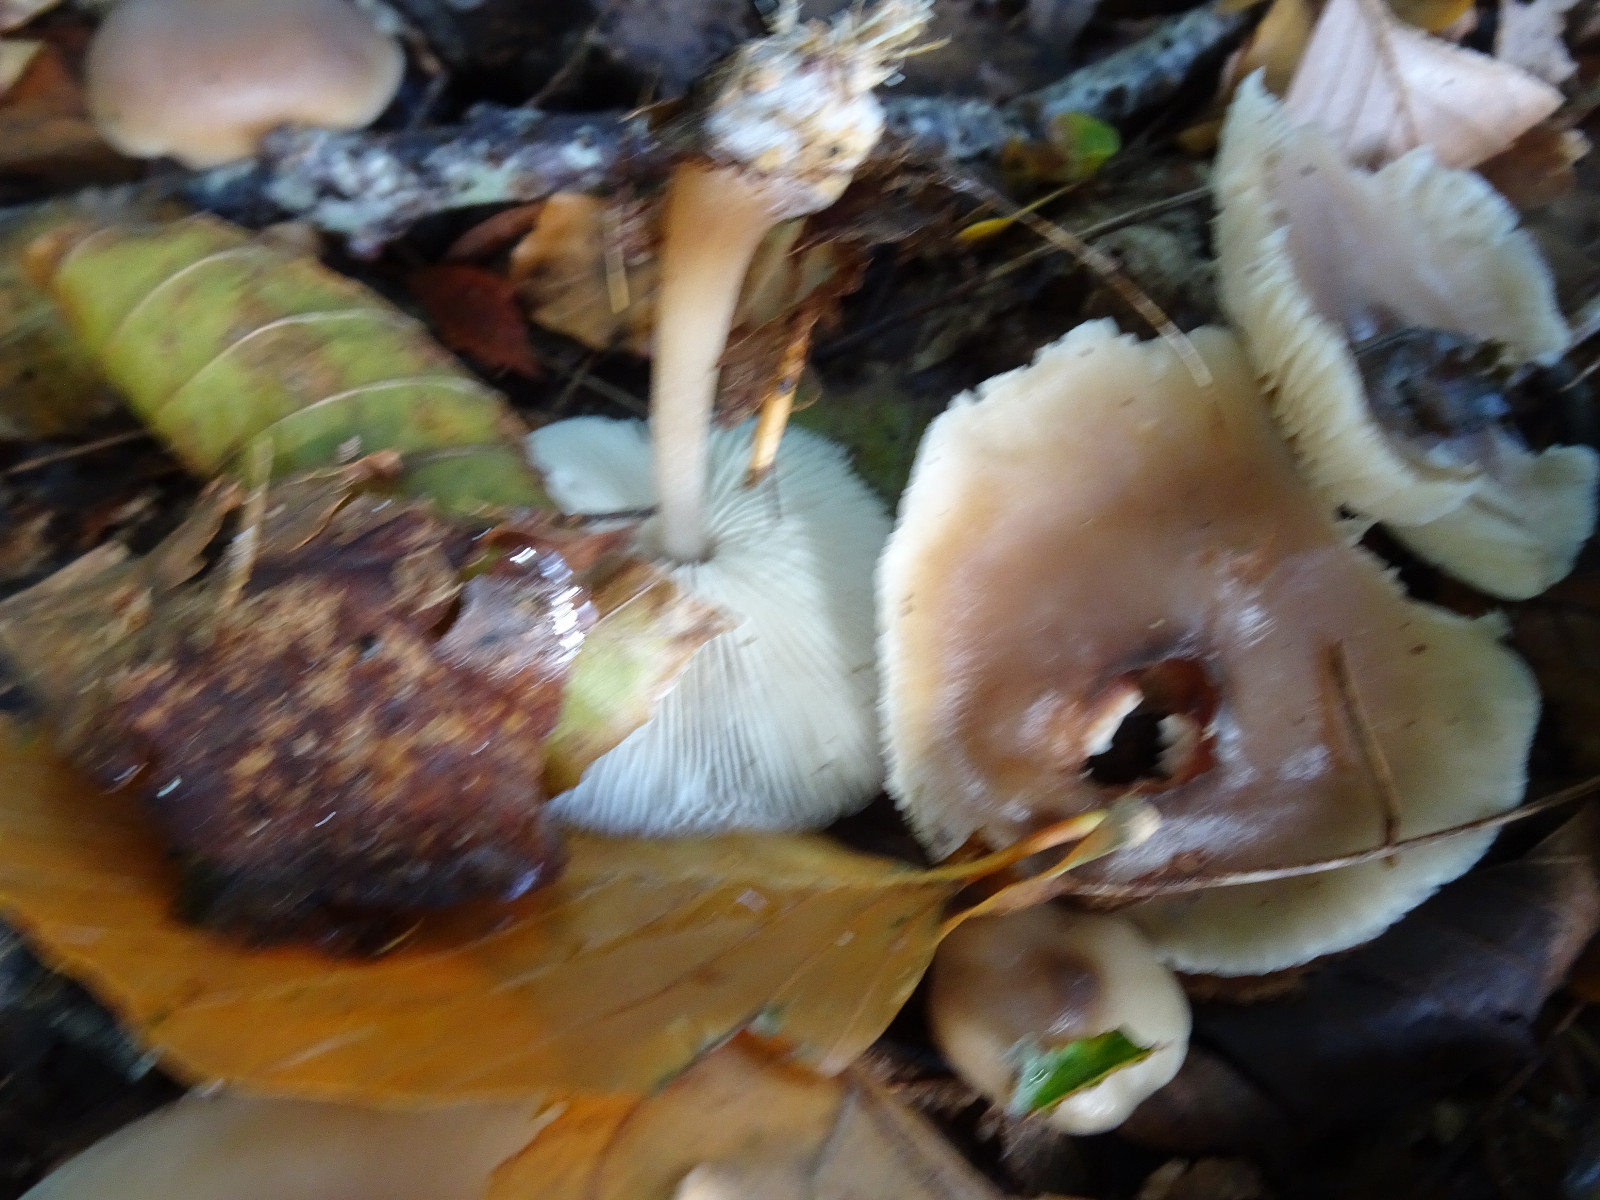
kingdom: Fungi
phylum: Basidiomycota
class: Agaricomycetes
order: Agaricales
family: Omphalotaceae
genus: Rhodocollybia
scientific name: Rhodocollybia asema
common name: horngrå fladhat
